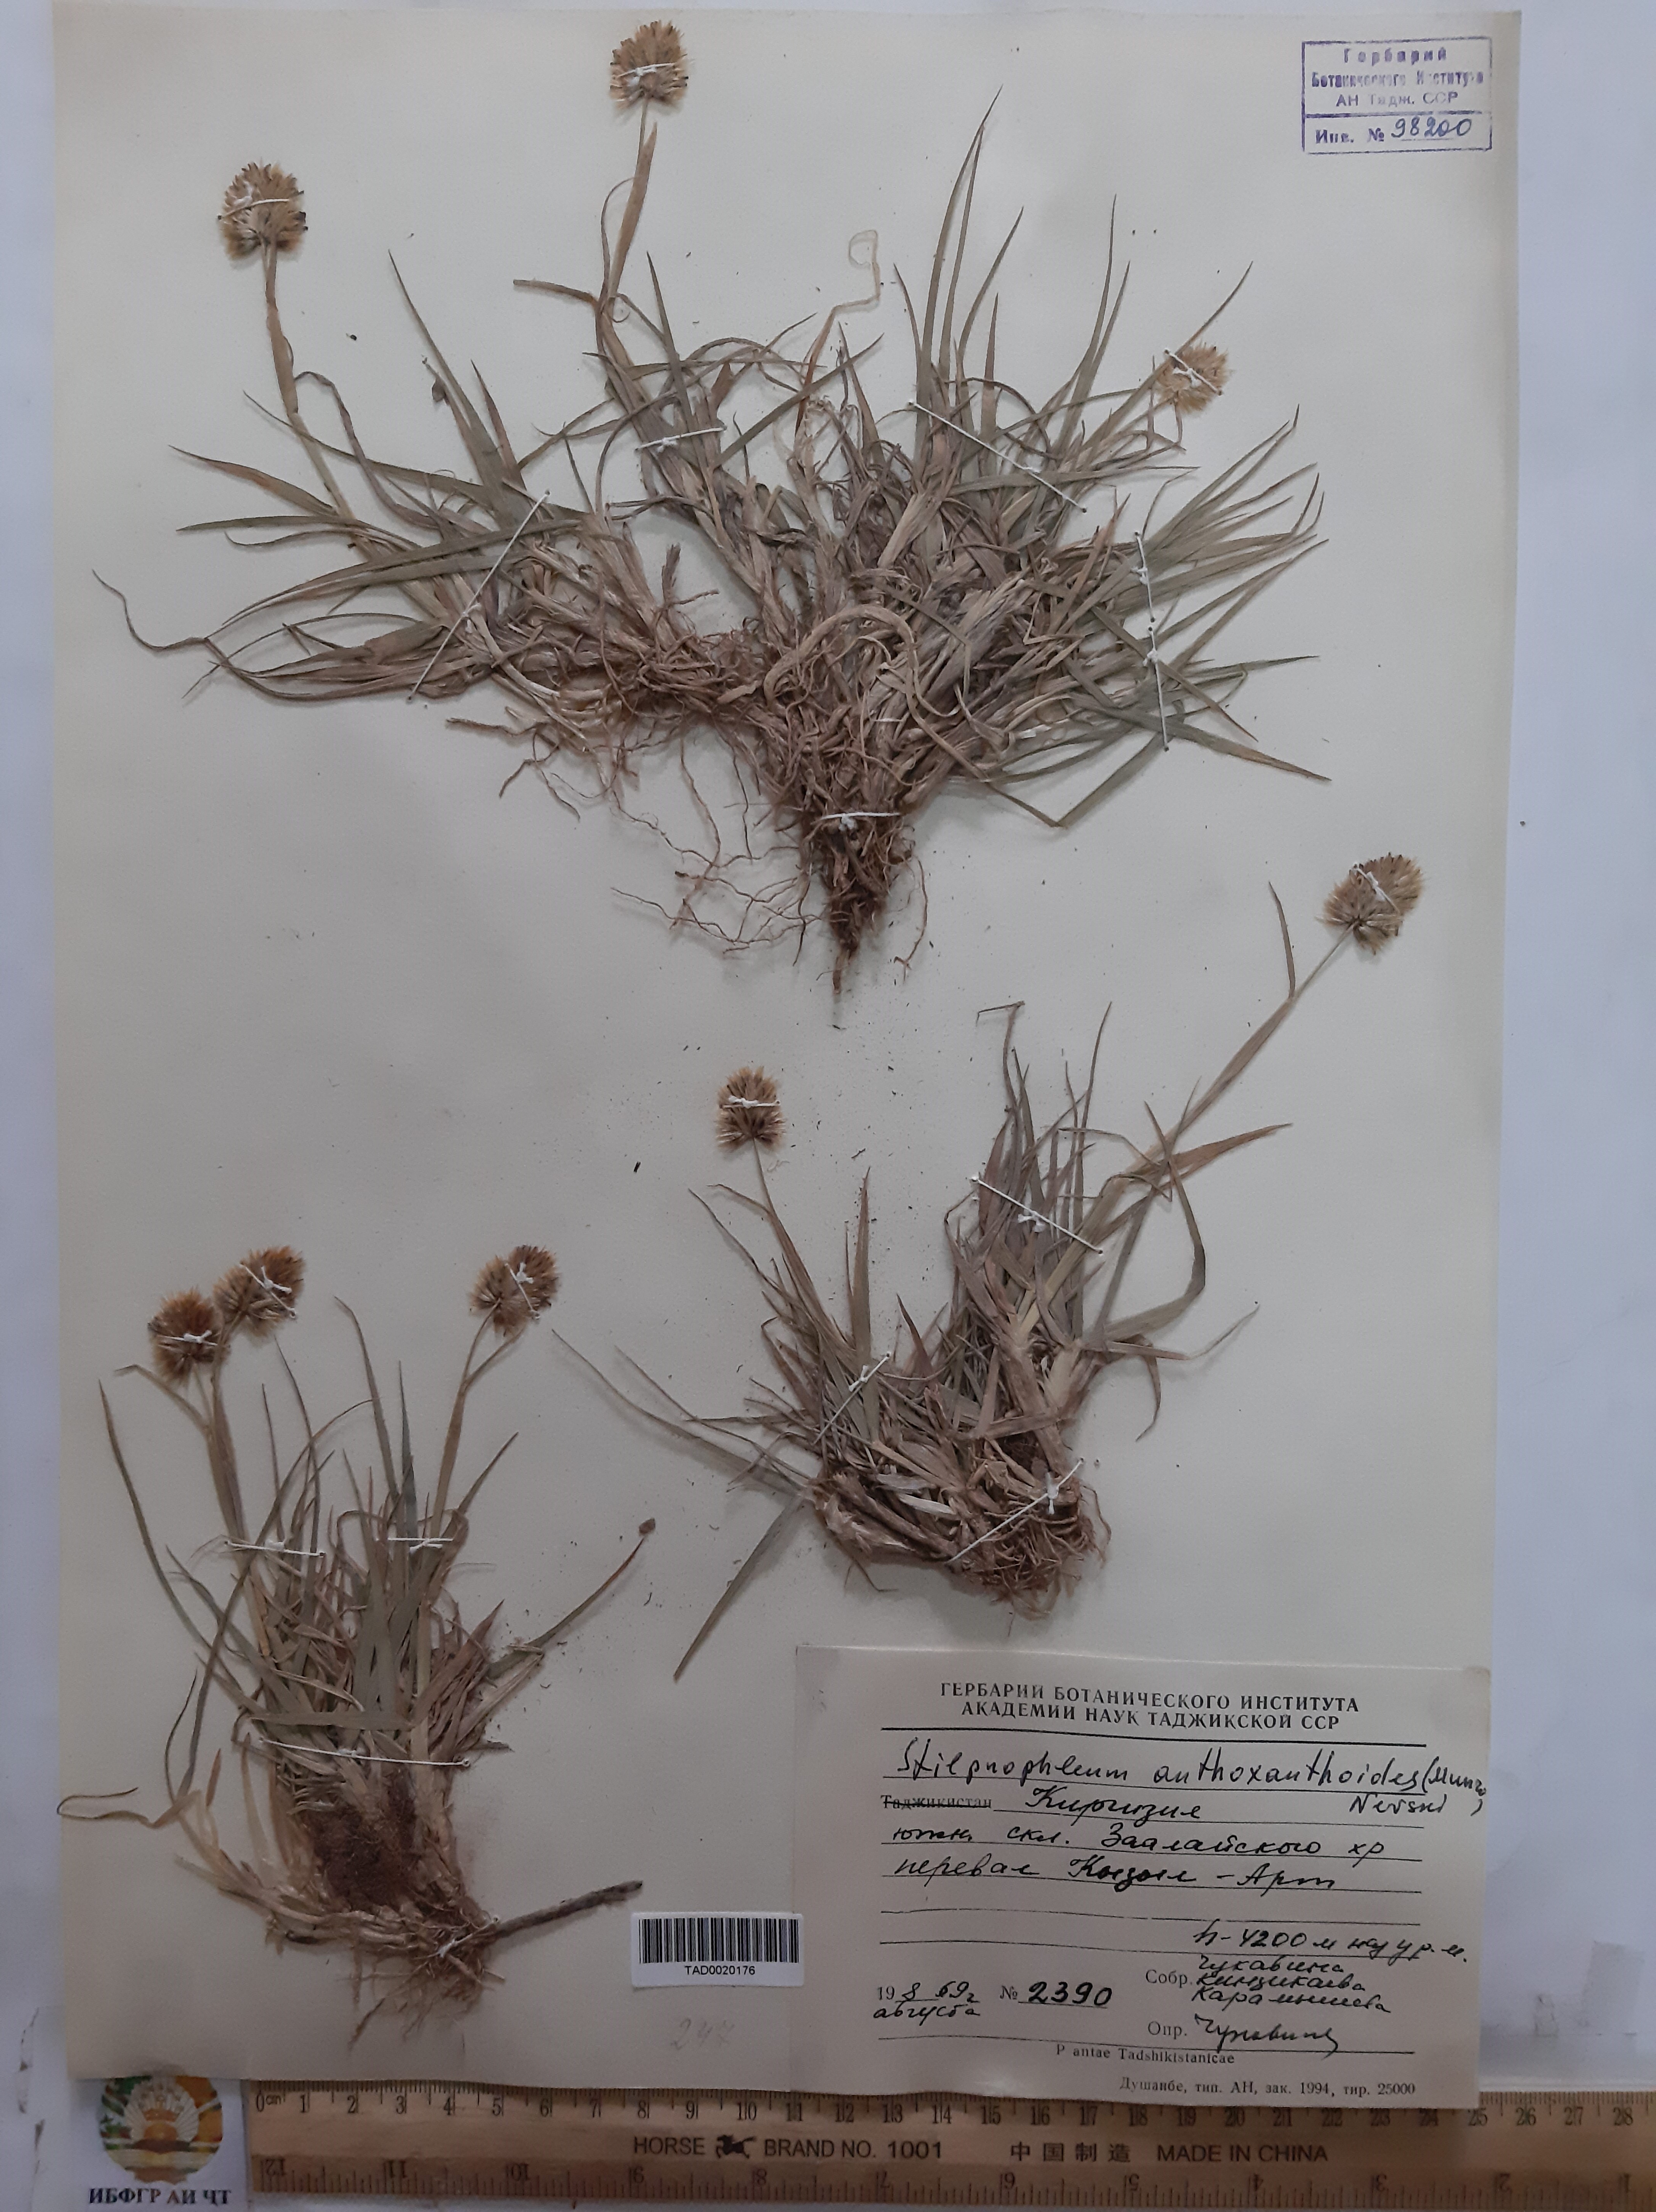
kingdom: Plantae
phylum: Tracheophyta
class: Liliopsida
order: Poales
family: Poaceae
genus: Calamagrostis
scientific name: Calamagrostis anthoxanthoides
